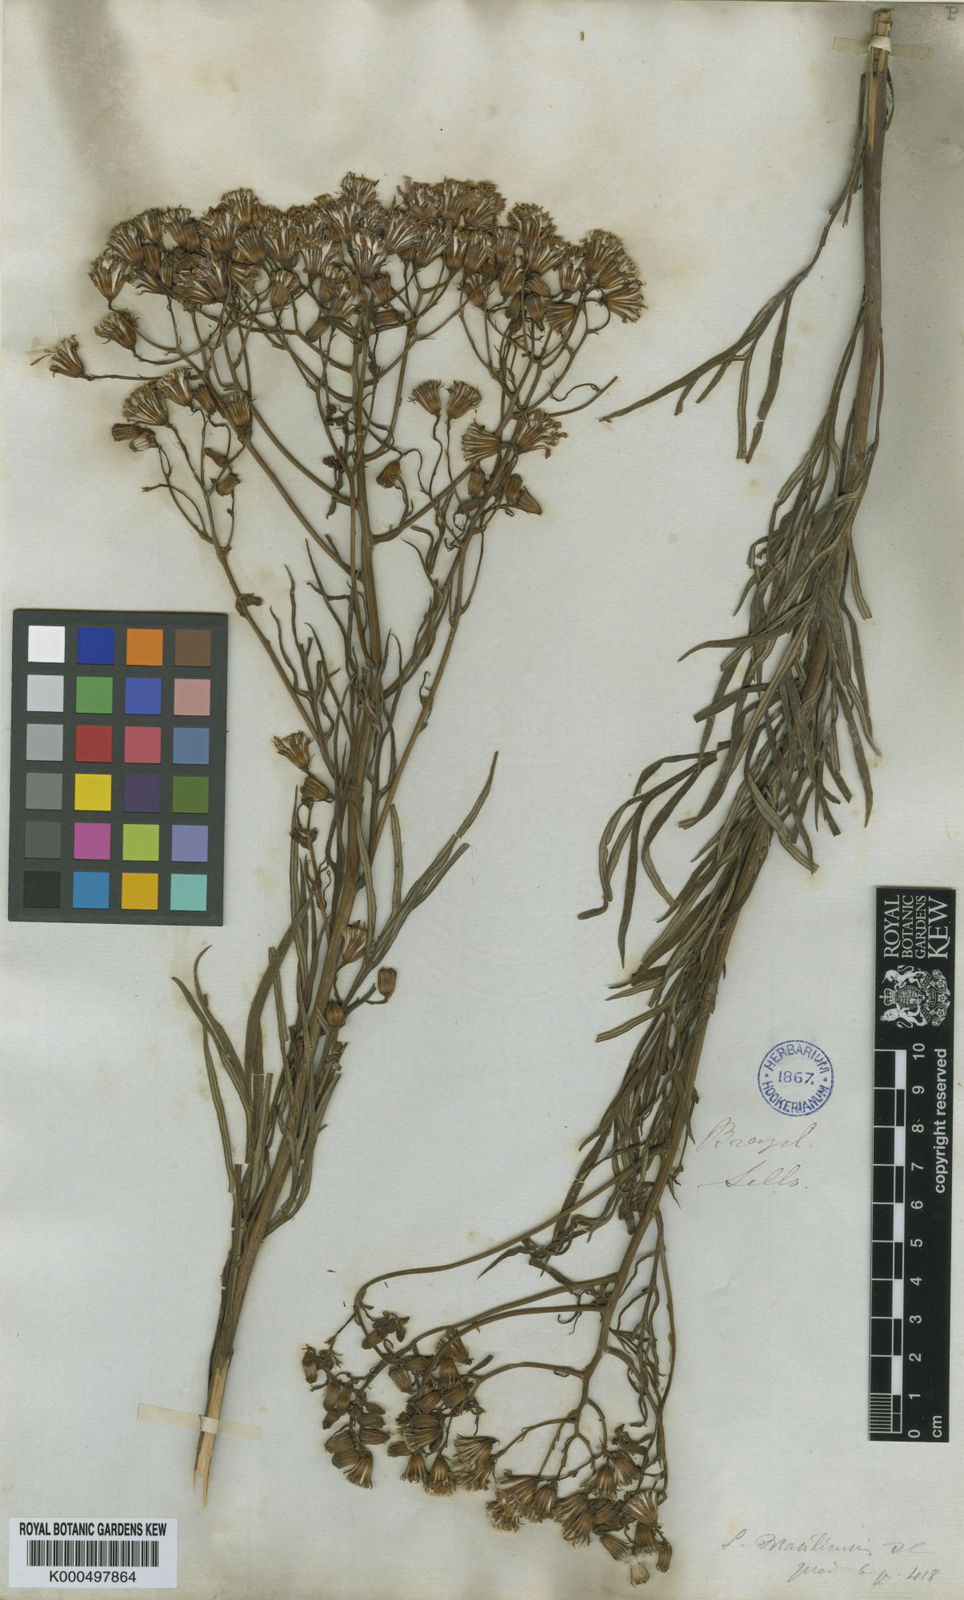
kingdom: Plantae
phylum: Tracheophyta
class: Magnoliopsida
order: Asterales
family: Asteraceae
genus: Senecio
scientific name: Senecio
